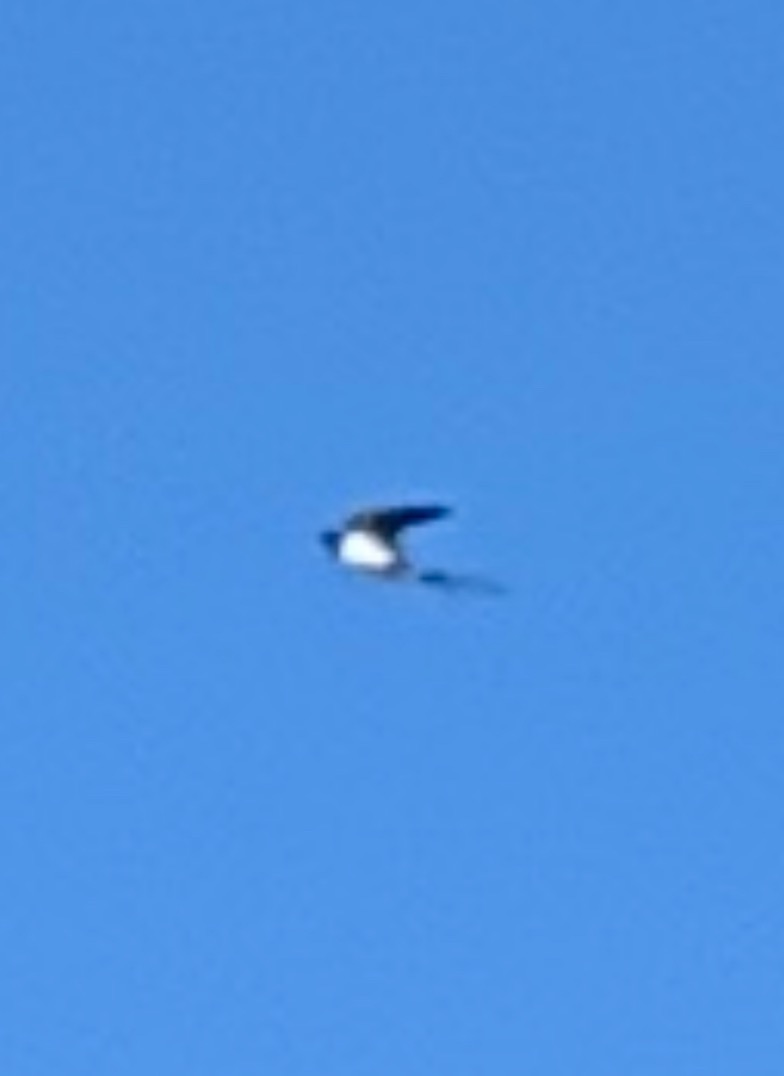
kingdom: Animalia
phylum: Chordata
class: Aves
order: Passeriformes
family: Hirundinidae
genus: Hirundo
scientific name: Hirundo rustica
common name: Landsvale
